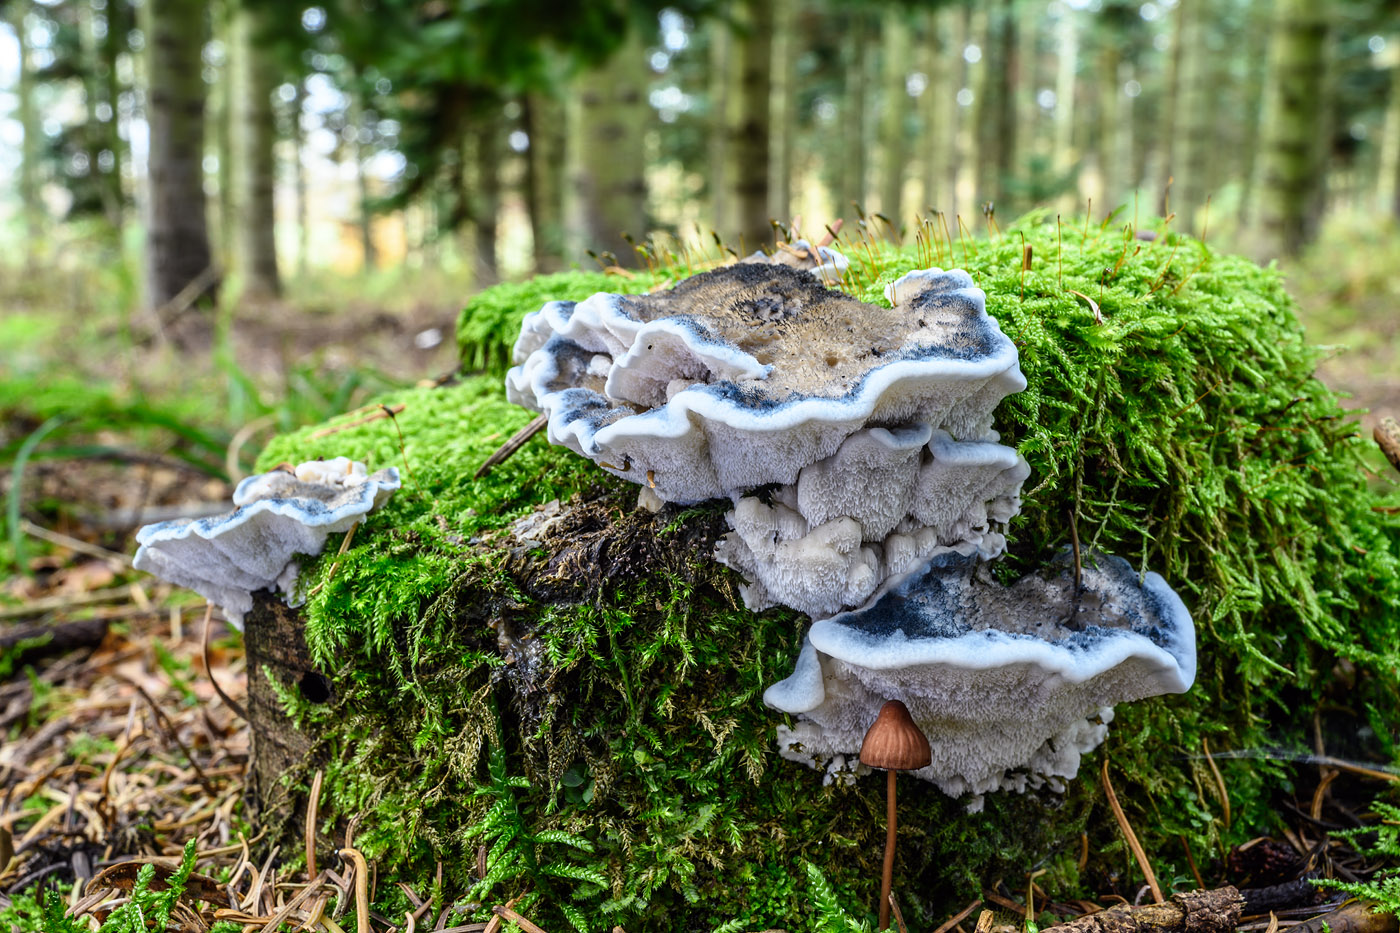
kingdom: Fungi
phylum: Basidiomycota
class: Agaricomycetes
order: Polyporales
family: Polyporaceae
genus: Cyanosporus
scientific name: Cyanosporus caesius
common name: blålig kødporesvamp
